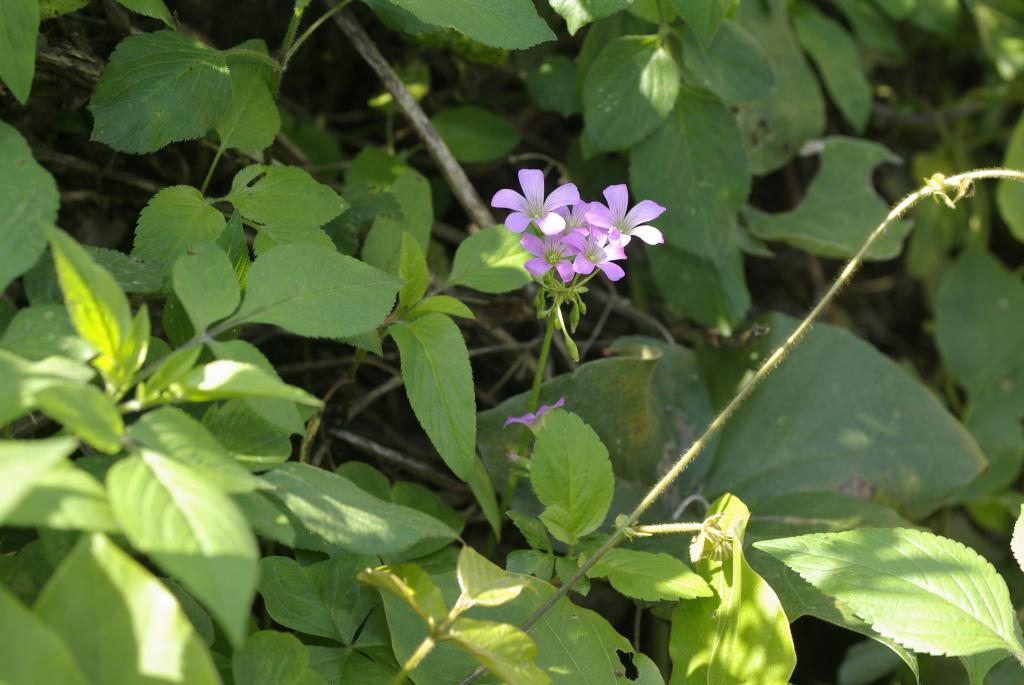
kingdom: Plantae
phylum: Tracheophyta
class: Magnoliopsida
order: Oxalidales
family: Oxalidaceae
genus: Oxalis
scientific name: Oxalis debilis
